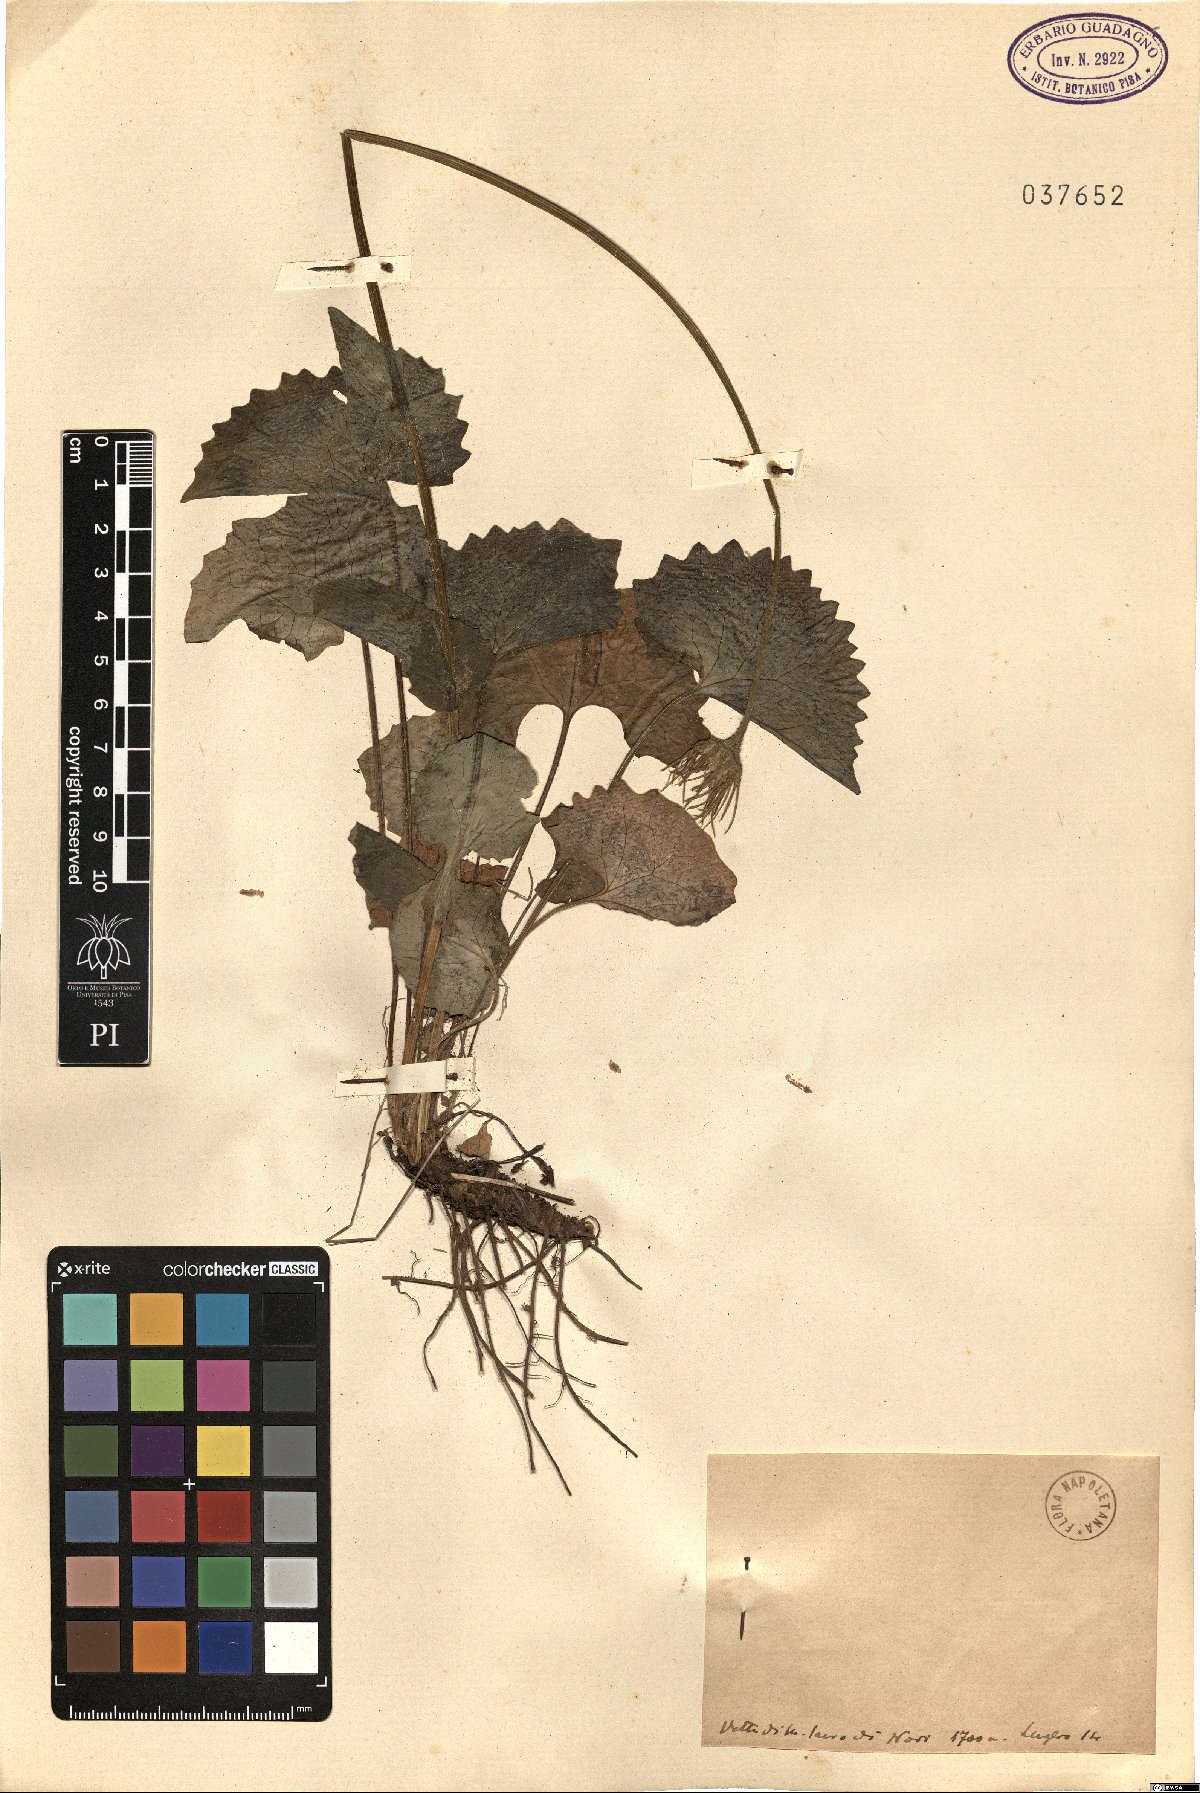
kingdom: Plantae
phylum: Tracheophyta
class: Magnoliopsida
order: Asterales
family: Asteraceae
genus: Doronicum
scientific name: Doronicum
